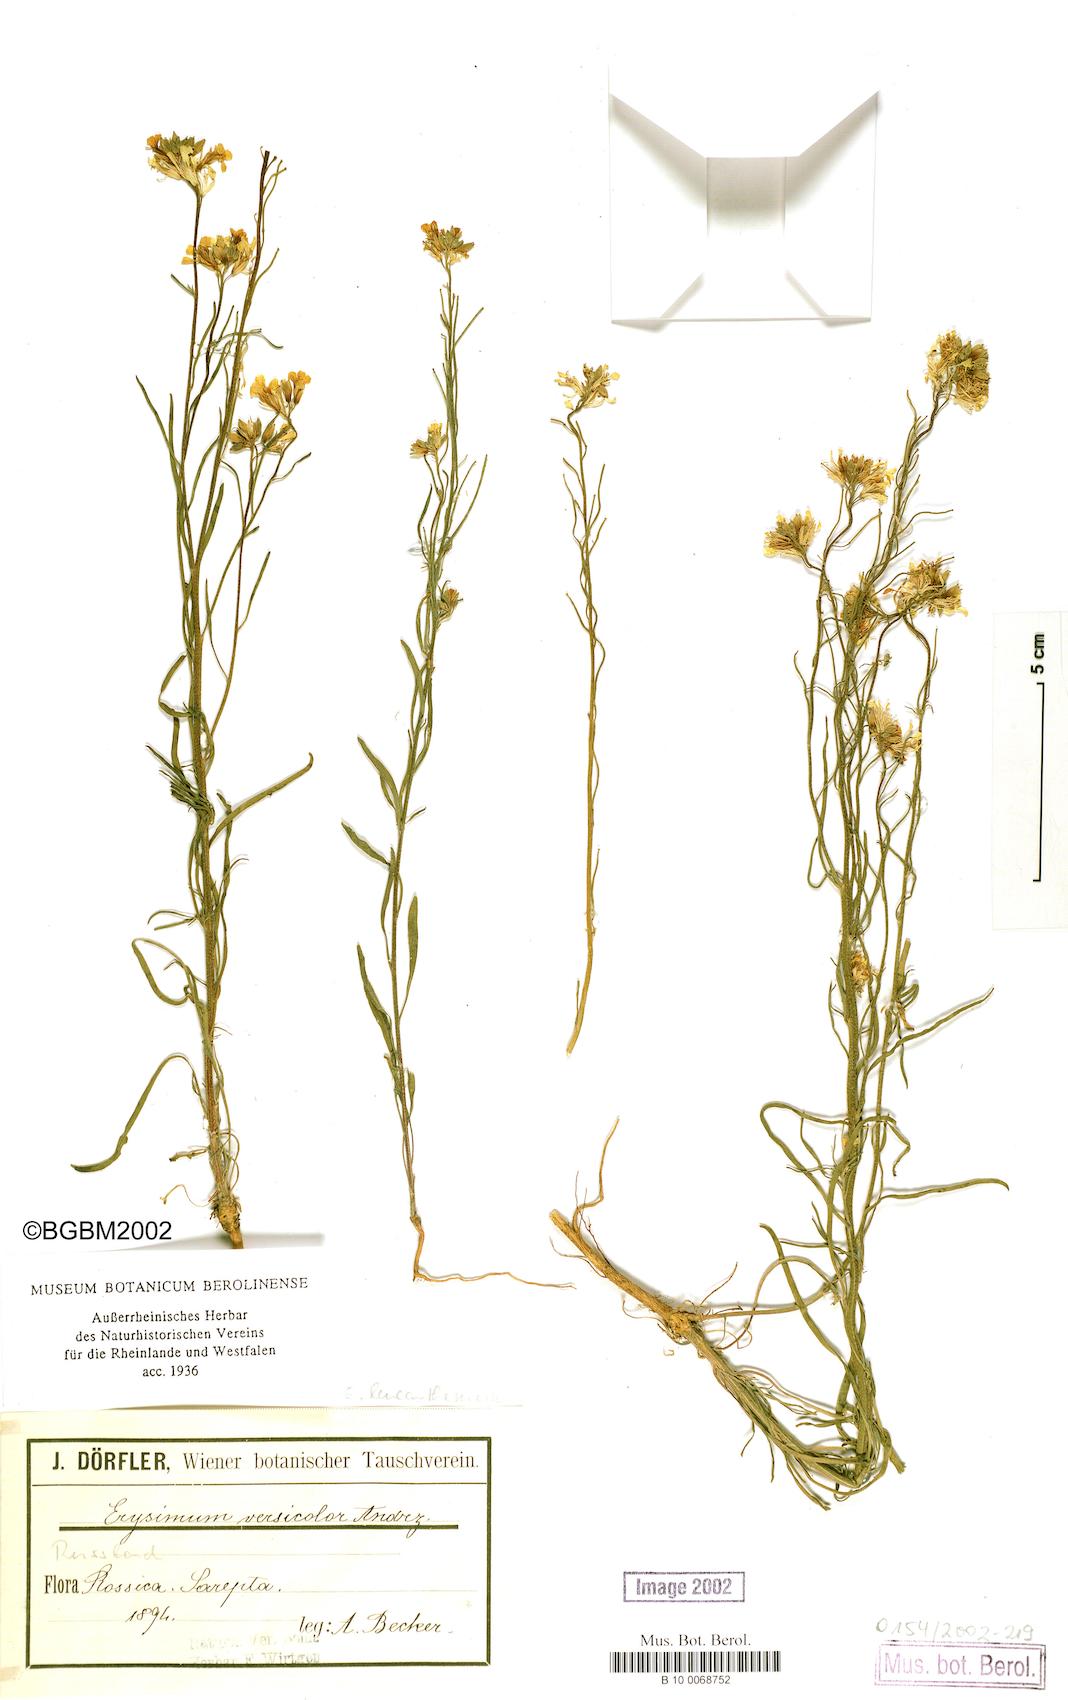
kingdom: Plantae
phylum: Tracheophyta
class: Magnoliopsida
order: Brassicales
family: Brassicaceae
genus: Erysimum
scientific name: Erysimum leucanthemum
